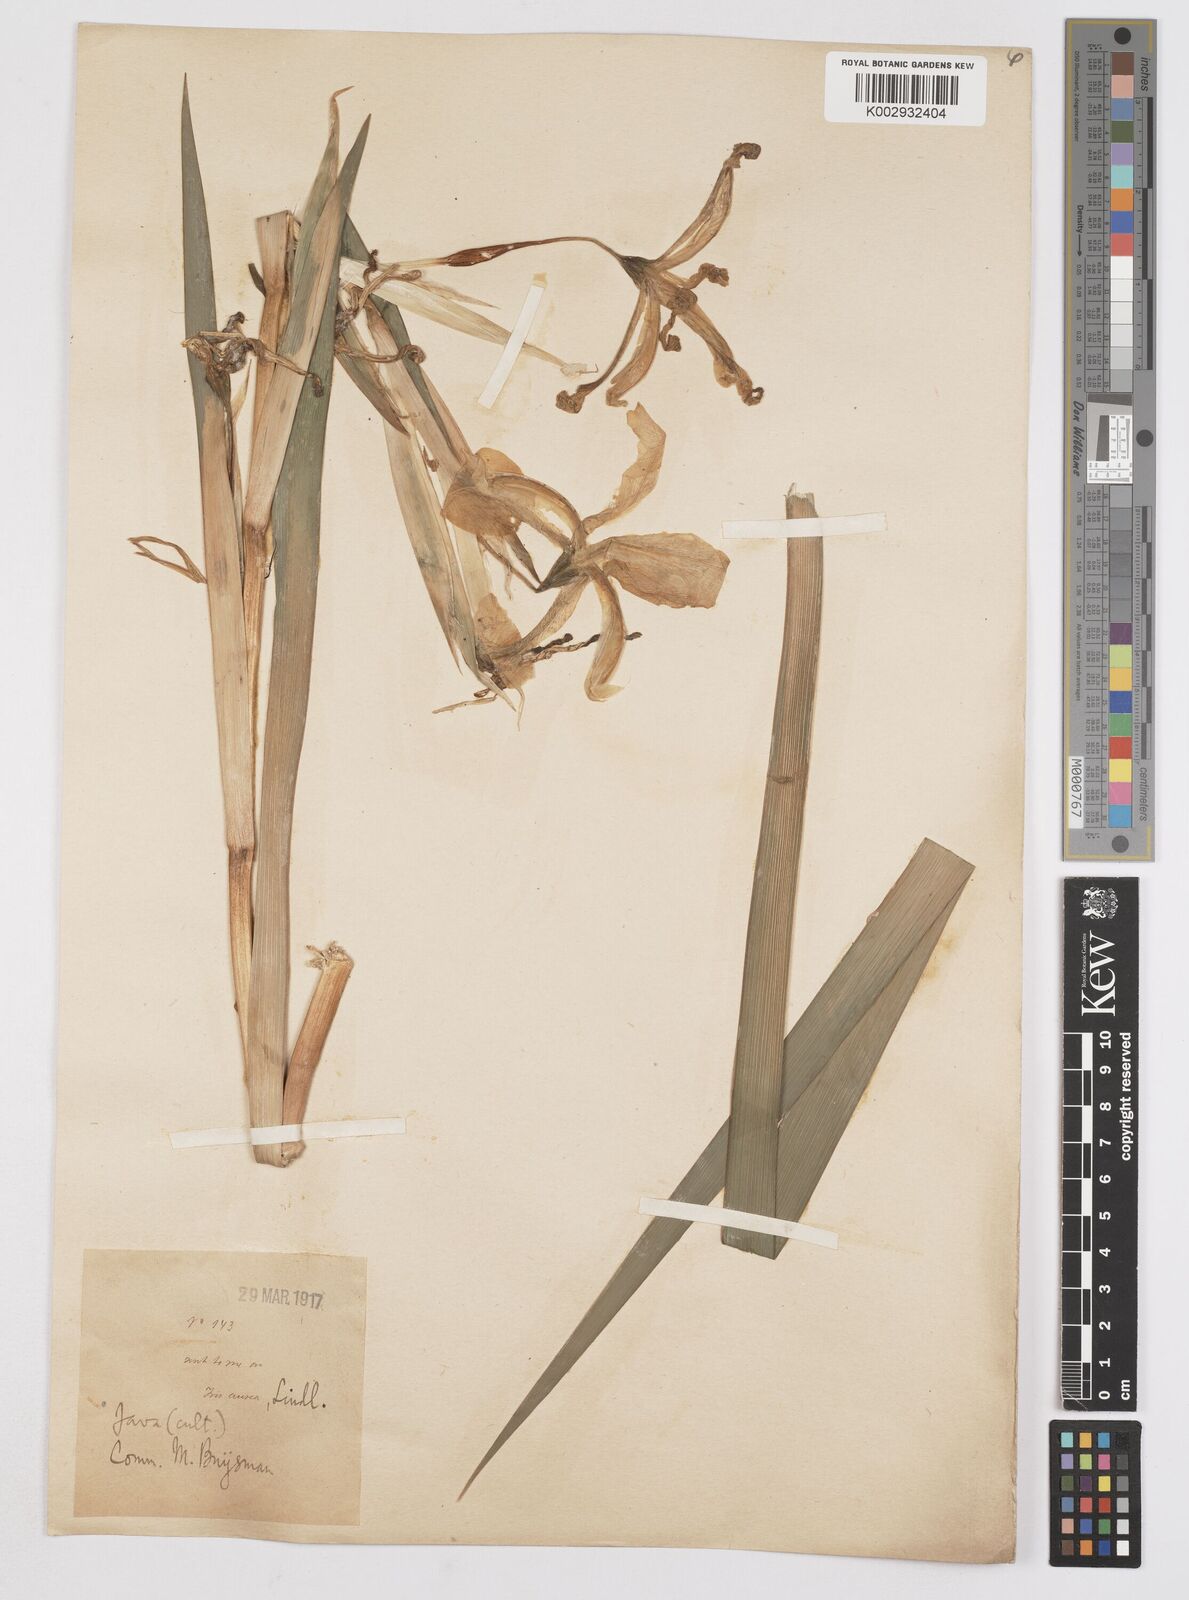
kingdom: Plantae
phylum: Tracheophyta
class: Liliopsida
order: Asparagales
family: Iridaceae
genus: Iris
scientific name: Iris
